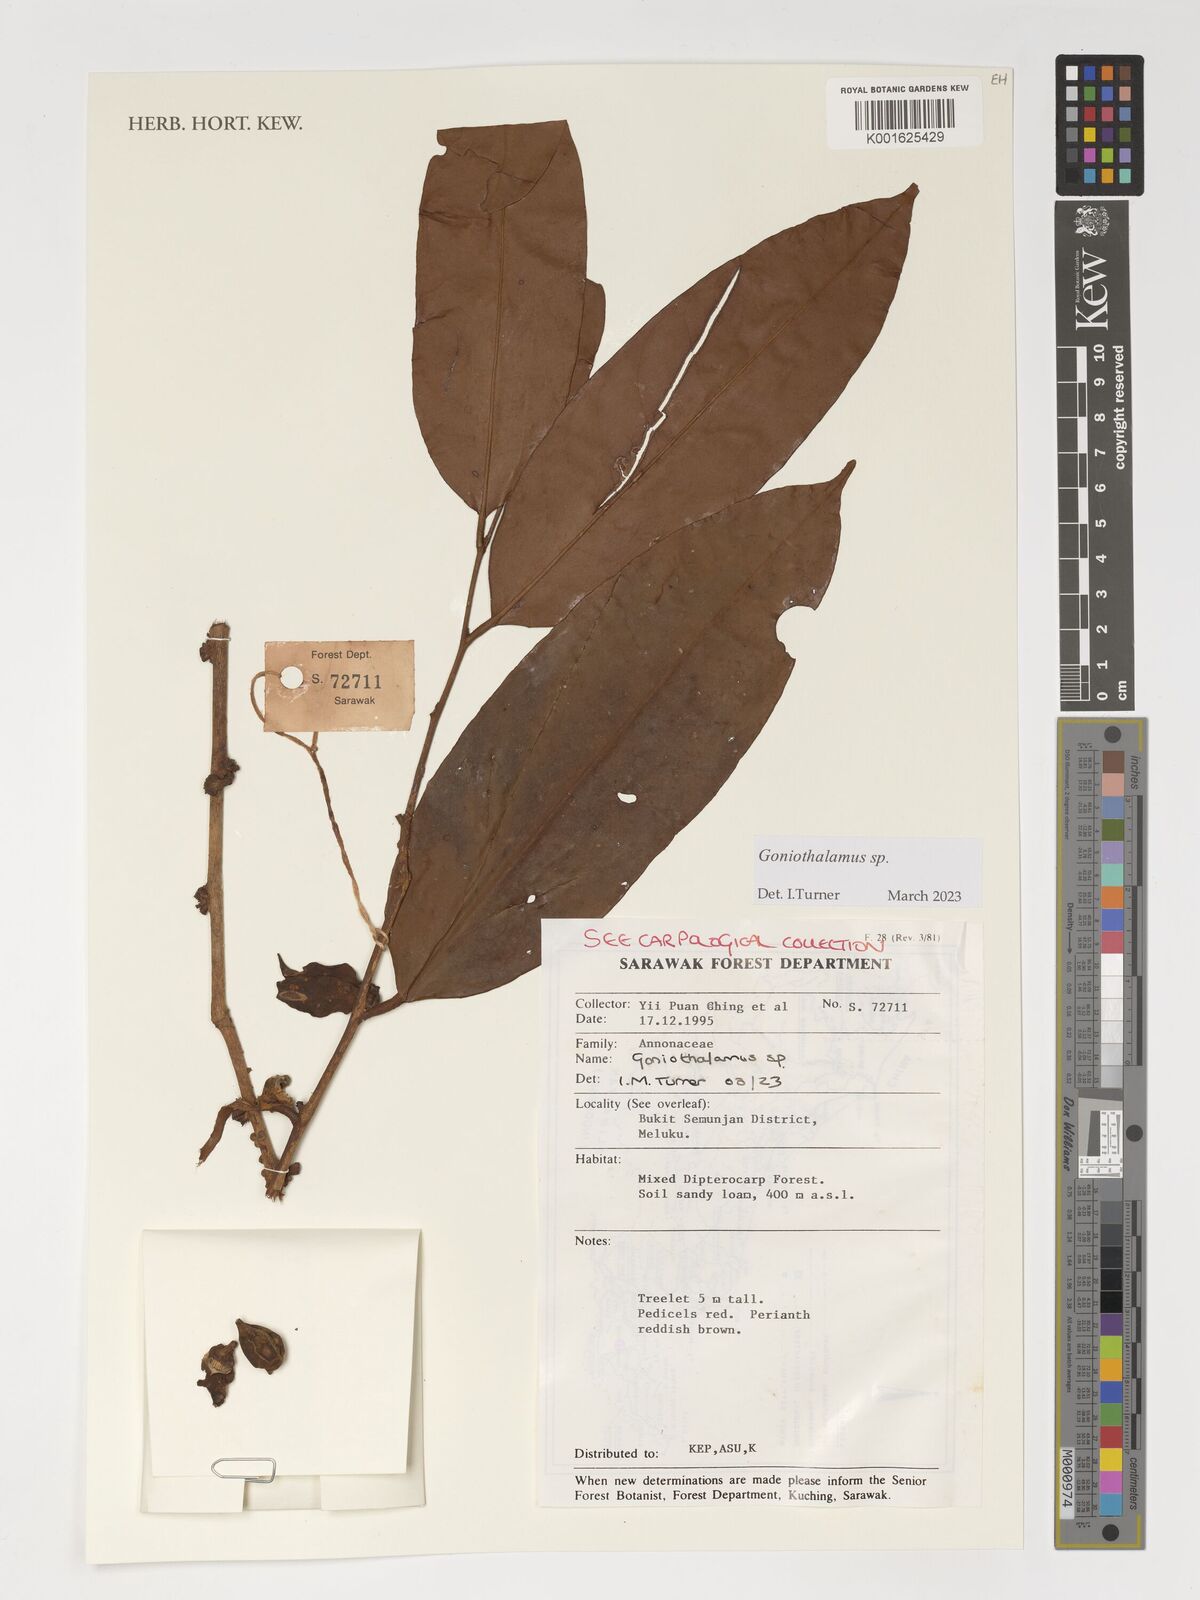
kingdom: Plantae
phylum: Tracheophyta
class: Magnoliopsida
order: Magnoliales
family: Annonaceae
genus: Goniothalamus
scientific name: Goniothalamus
